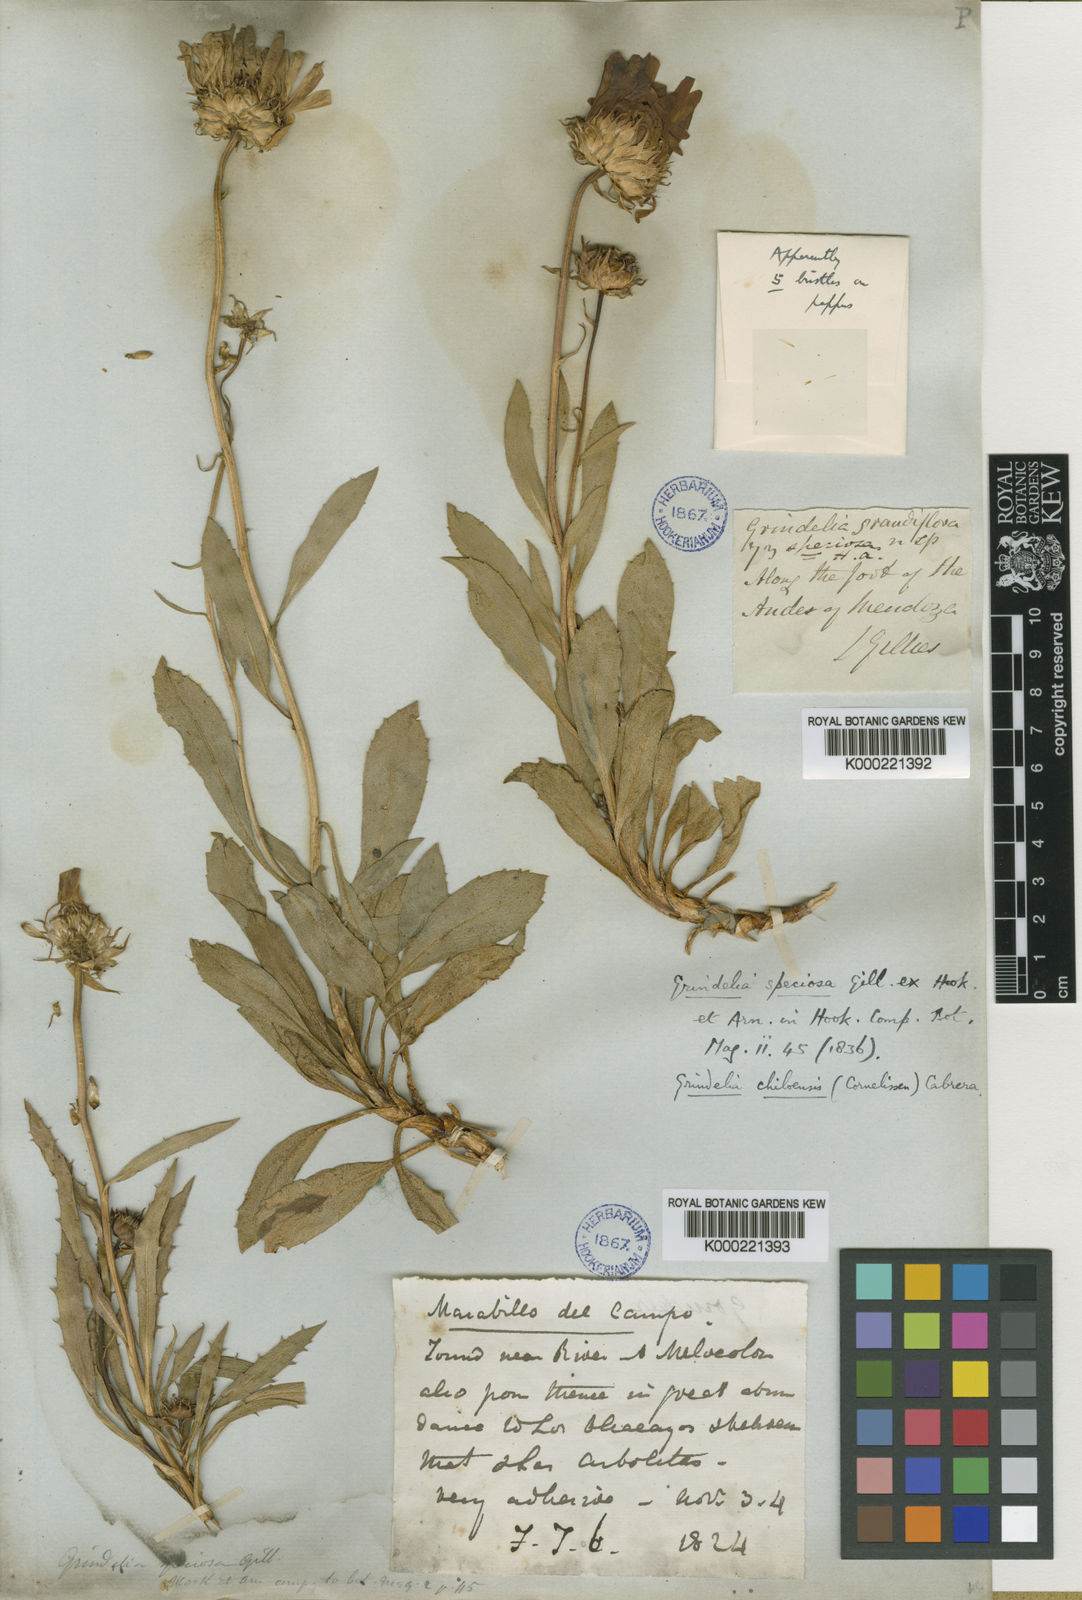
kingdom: Plantae
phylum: Tracheophyta
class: Magnoliopsida
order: Asterales
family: Asteraceae
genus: Grindelia
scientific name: Grindelia chiloensis
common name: Shrubby gumweed
